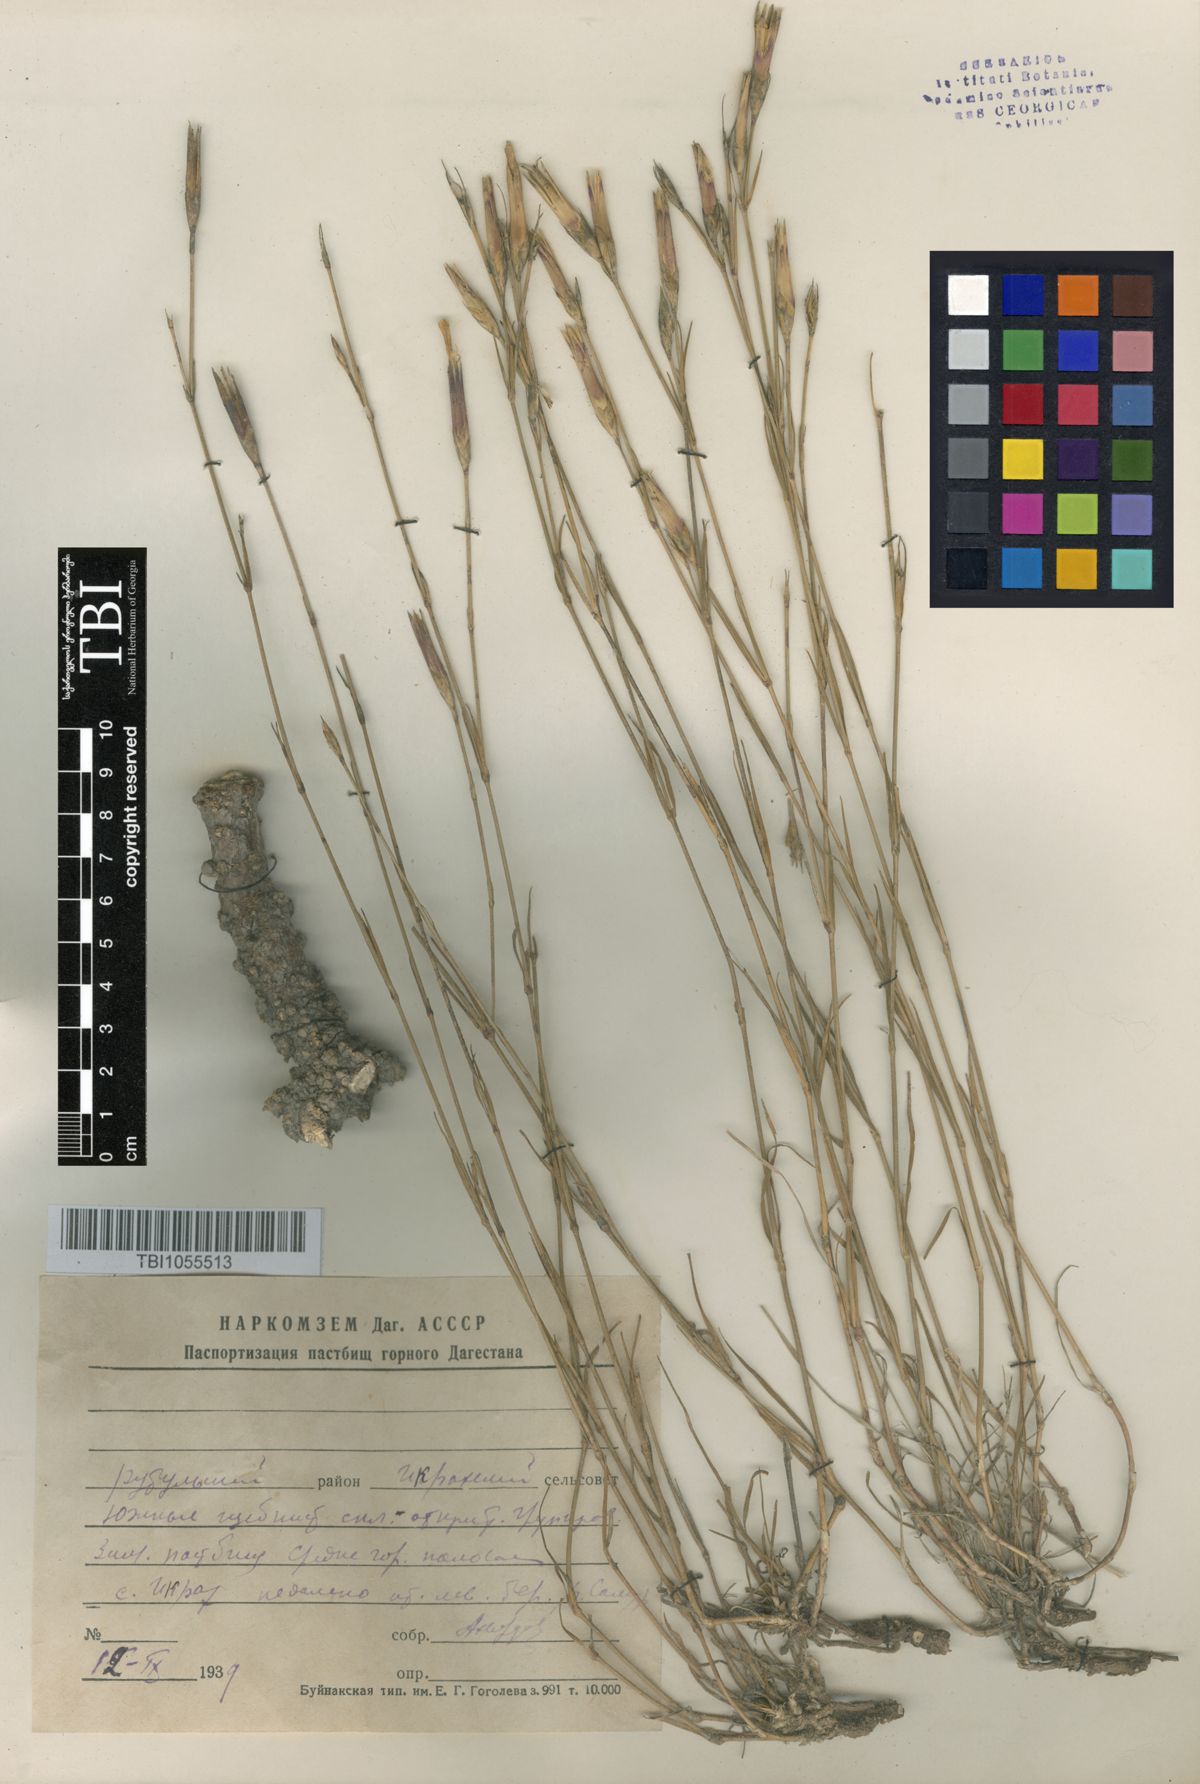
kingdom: Plantae
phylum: Tracheophyta
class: Magnoliopsida
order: Caryophyllales
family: Caryophyllaceae
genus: Dianthus
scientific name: Dianthus daghestanicus
